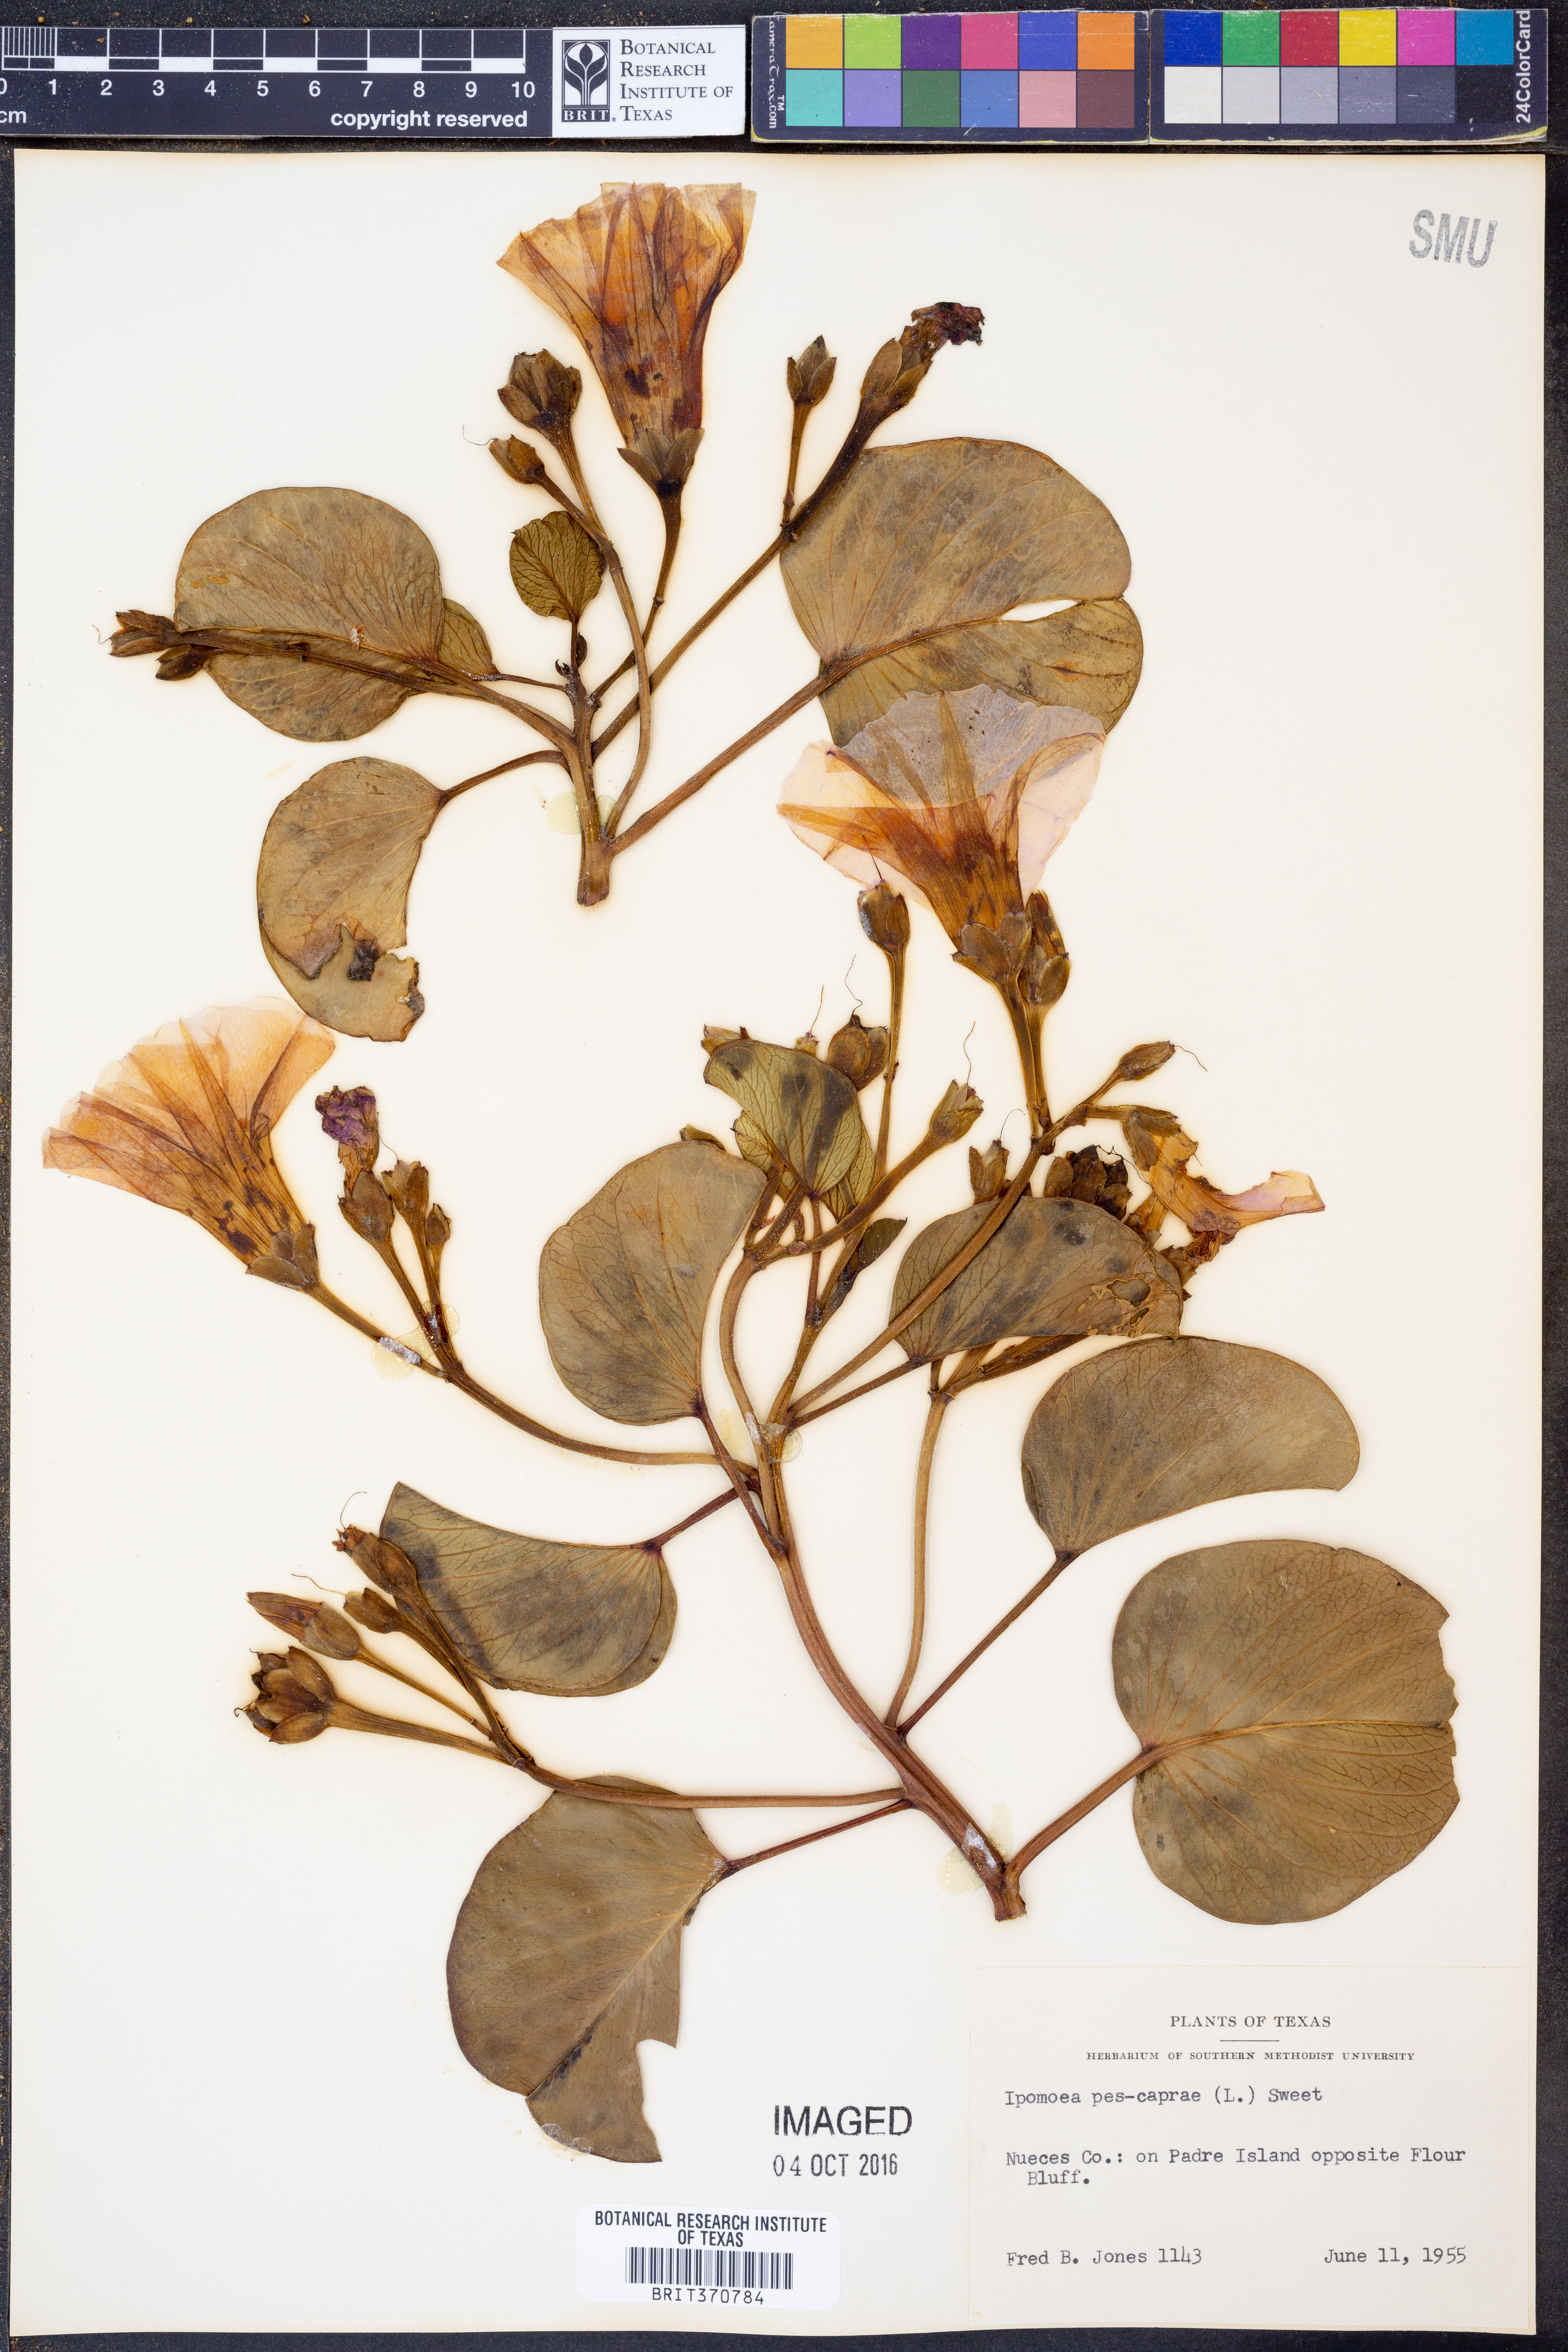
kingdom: Plantae
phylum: Tracheophyta
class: Magnoliopsida
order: Solanales
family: Convolvulaceae
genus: Ipomoea
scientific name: Ipomoea pes-caprae
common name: Beach morning glory
